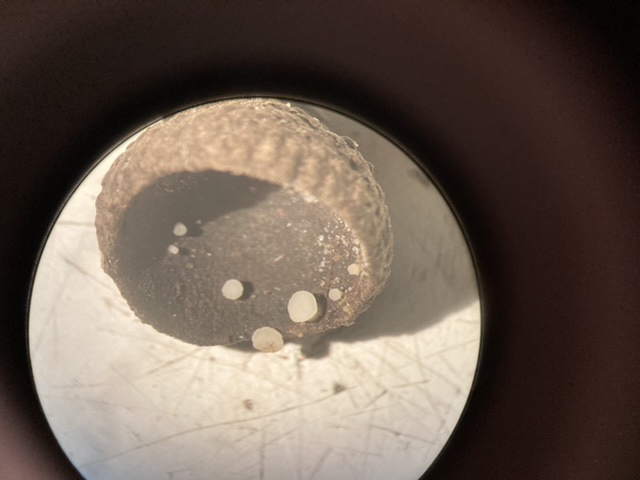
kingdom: Fungi
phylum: Ascomycota
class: Leotiomycetes
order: Helotiales
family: Helotiaceae
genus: Hymenoscyphus
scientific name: Hymenoscyphus
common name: stilkskive
